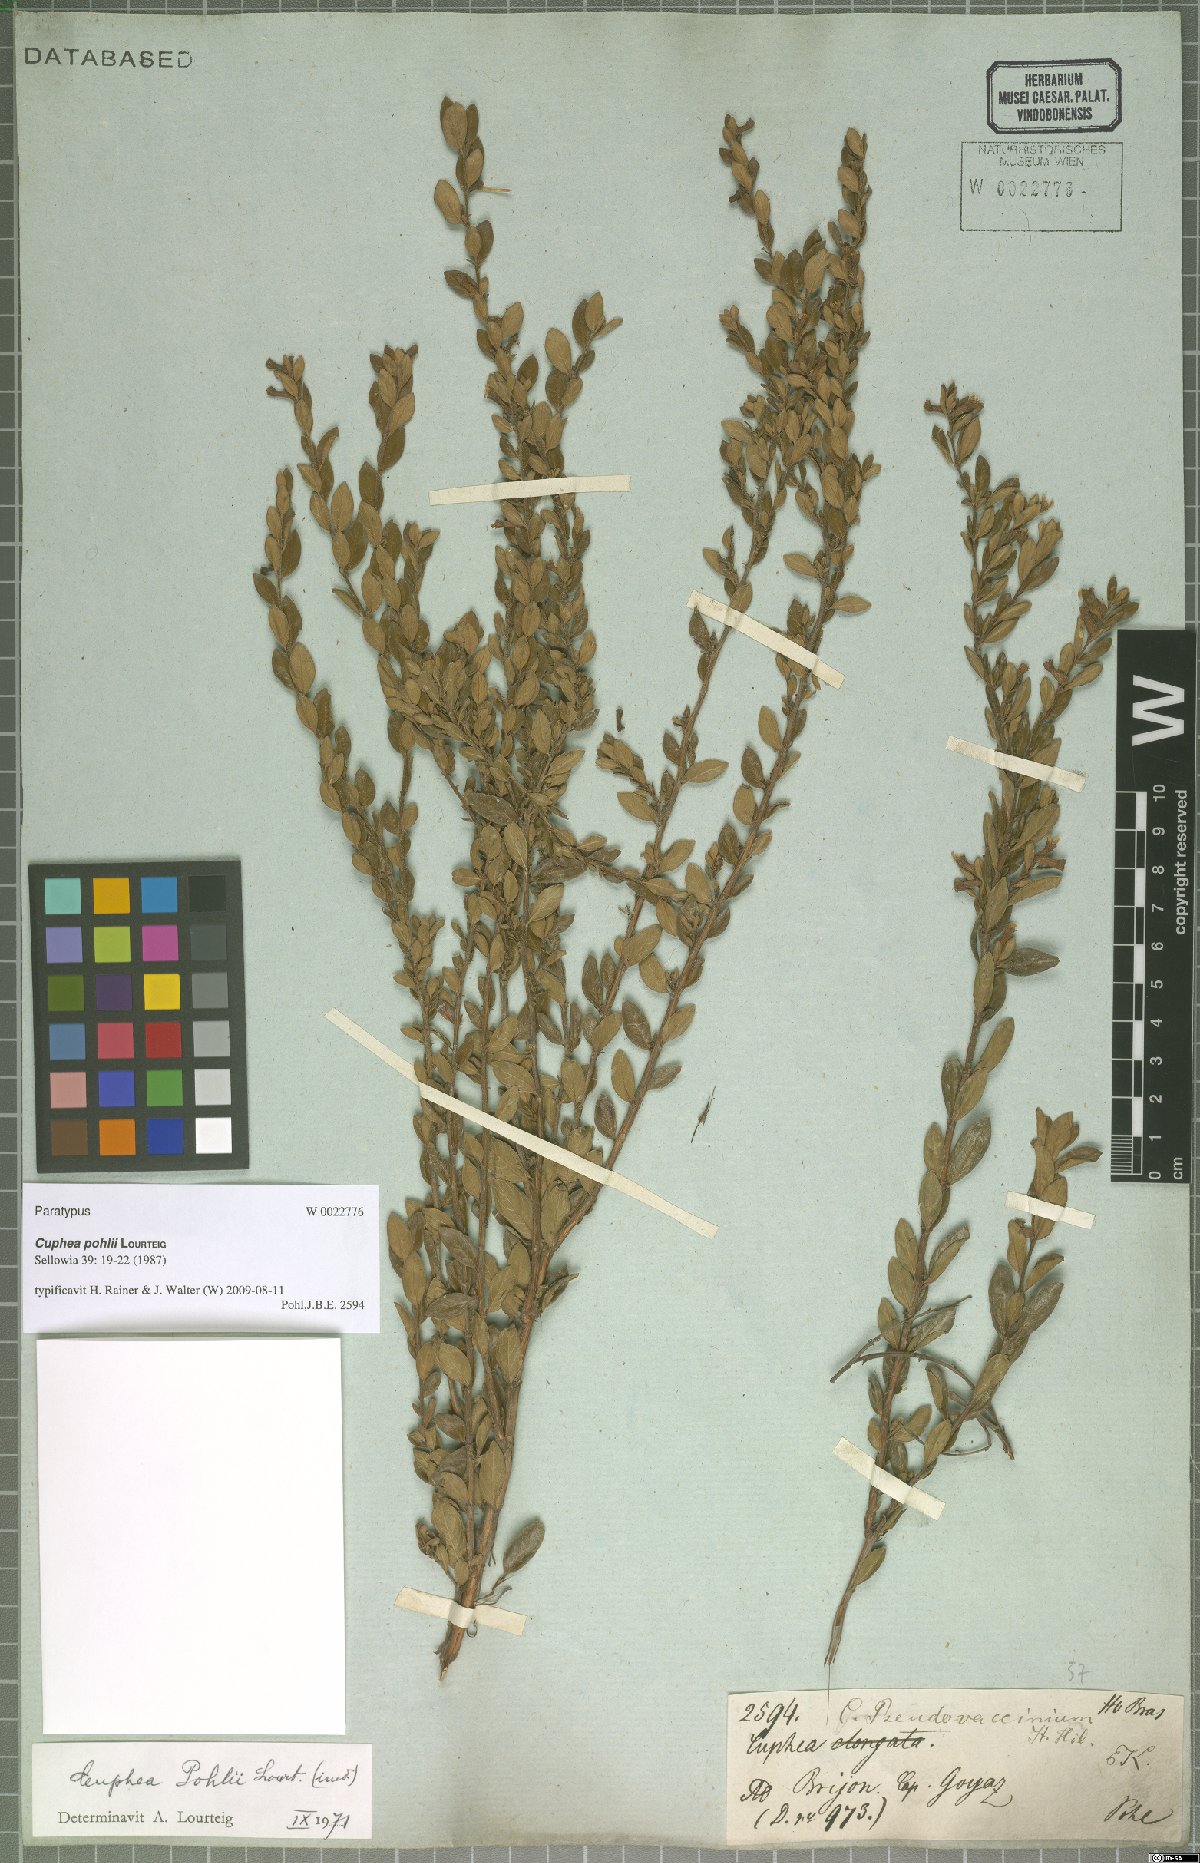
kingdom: Plantae
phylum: Tracheophyta
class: Magnoliopsida
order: Myrtales
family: Lythraceae
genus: Cuphea
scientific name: Cuphea pohlii
